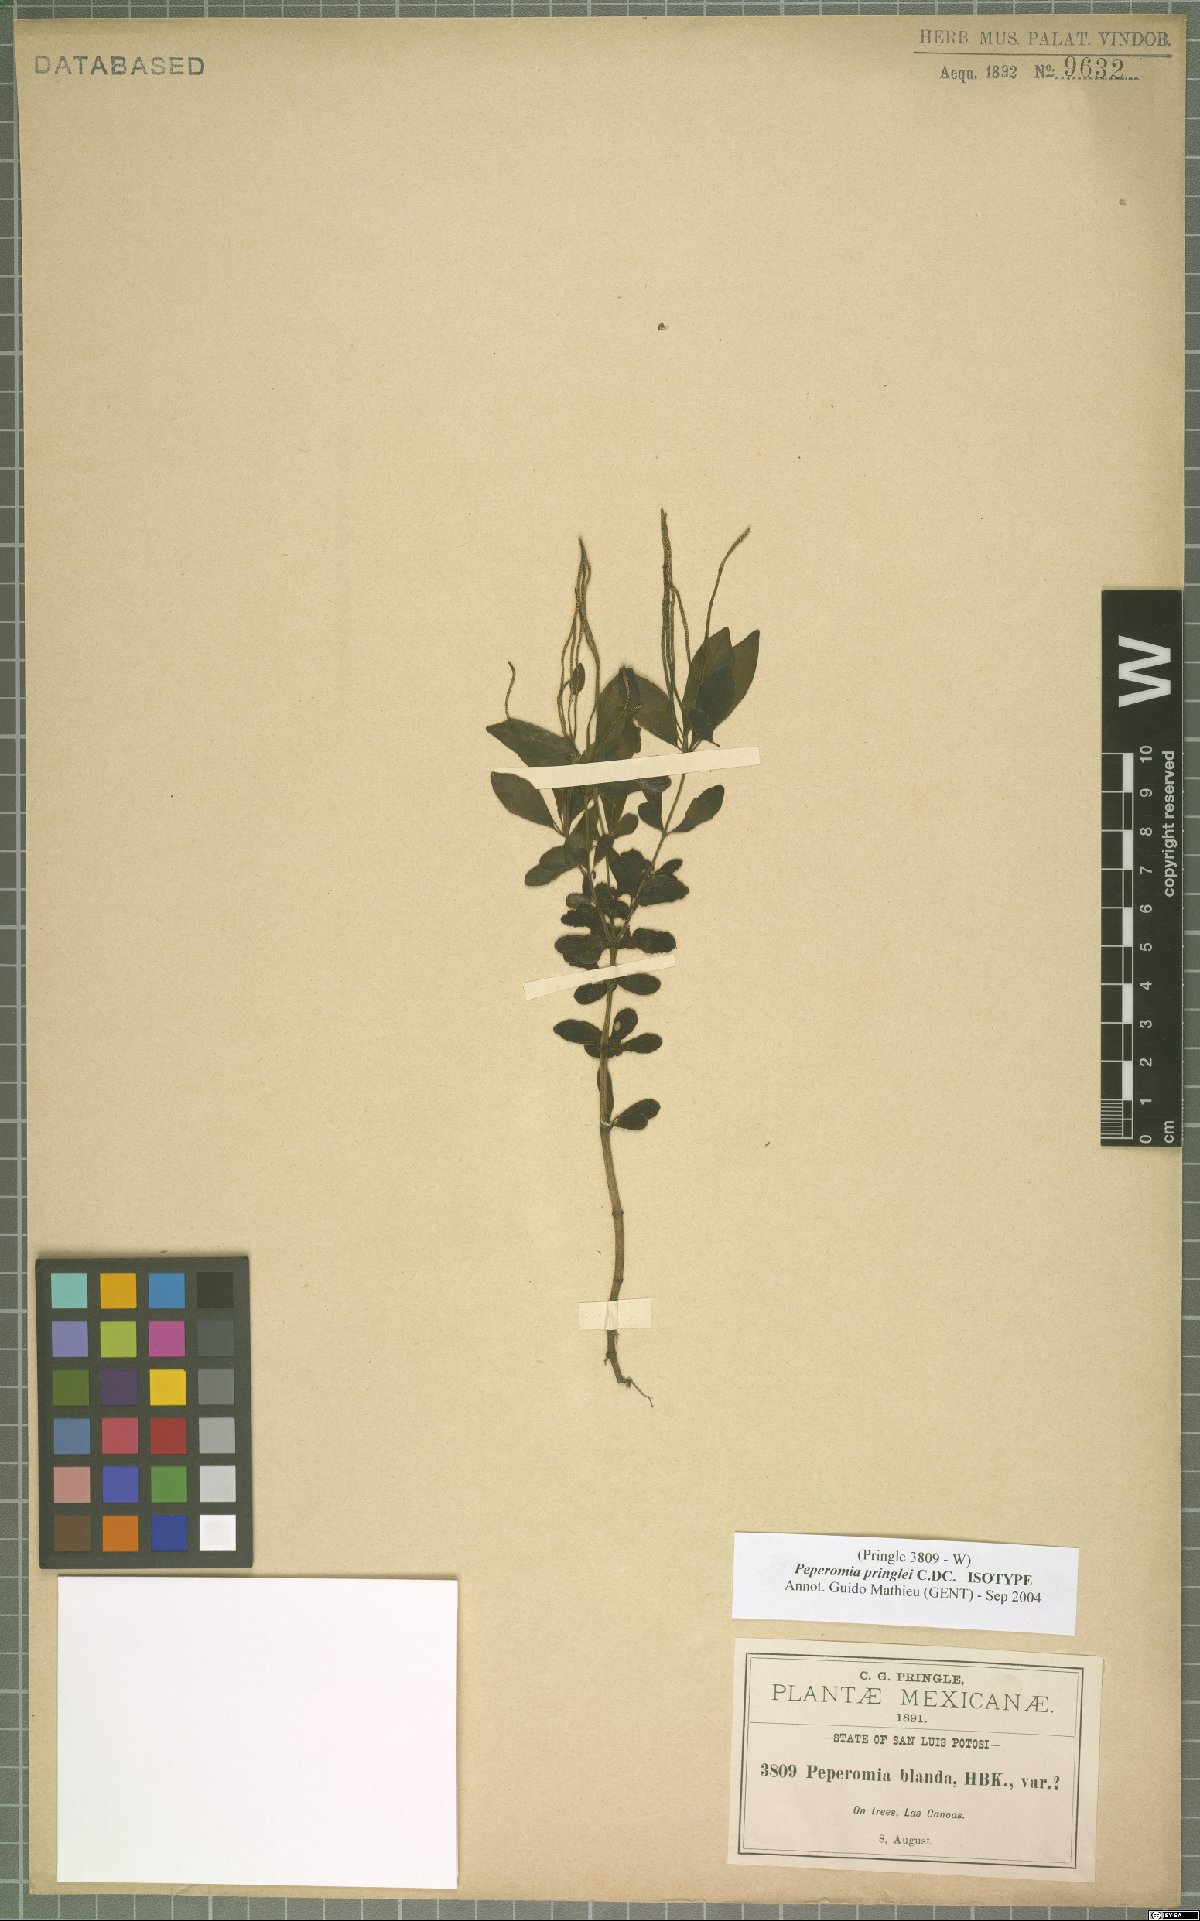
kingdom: Plantae
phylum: Tracheophyta
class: Magnoliopsida
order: Piperales
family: Piperaceae
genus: Peperomia
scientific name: Peperomia pringlei
